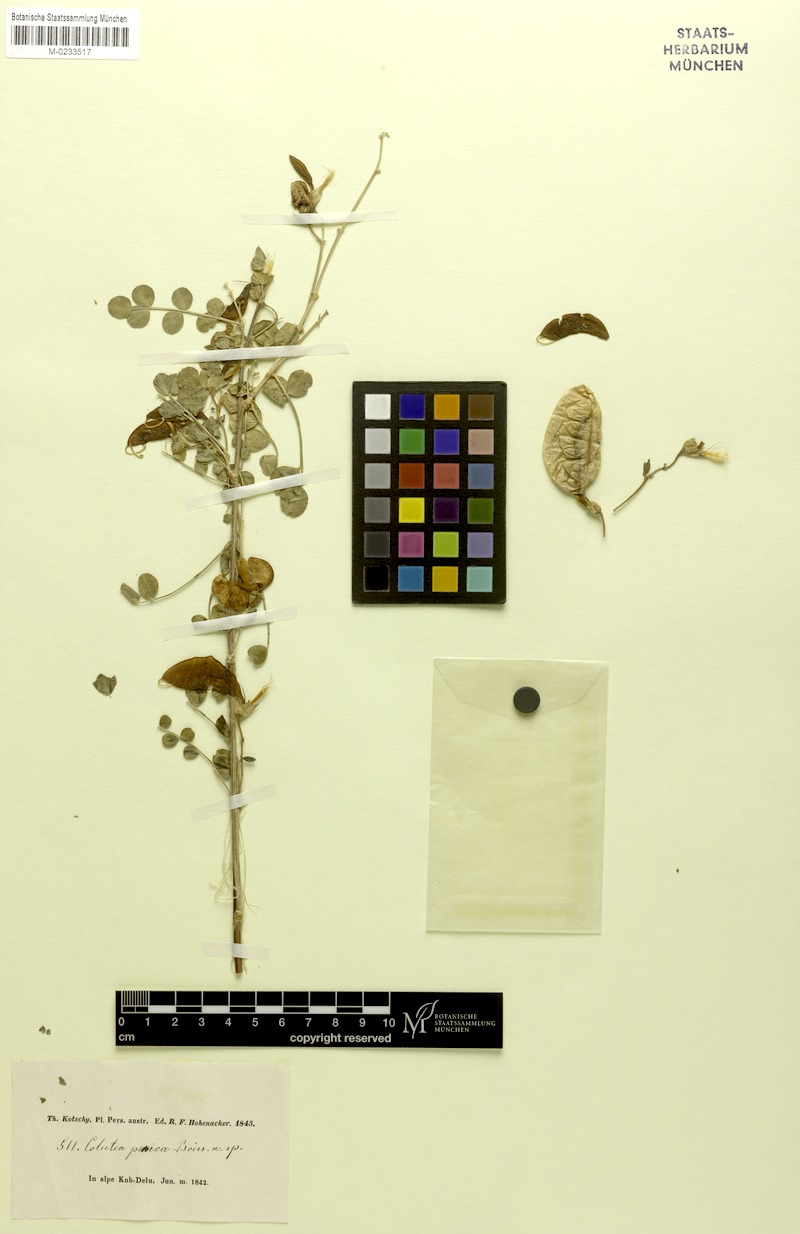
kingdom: Plantae
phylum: Tracheophyta
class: Magnoliopsida
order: Fabales
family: Fabaceae
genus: Colutea
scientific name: Colutea persica
